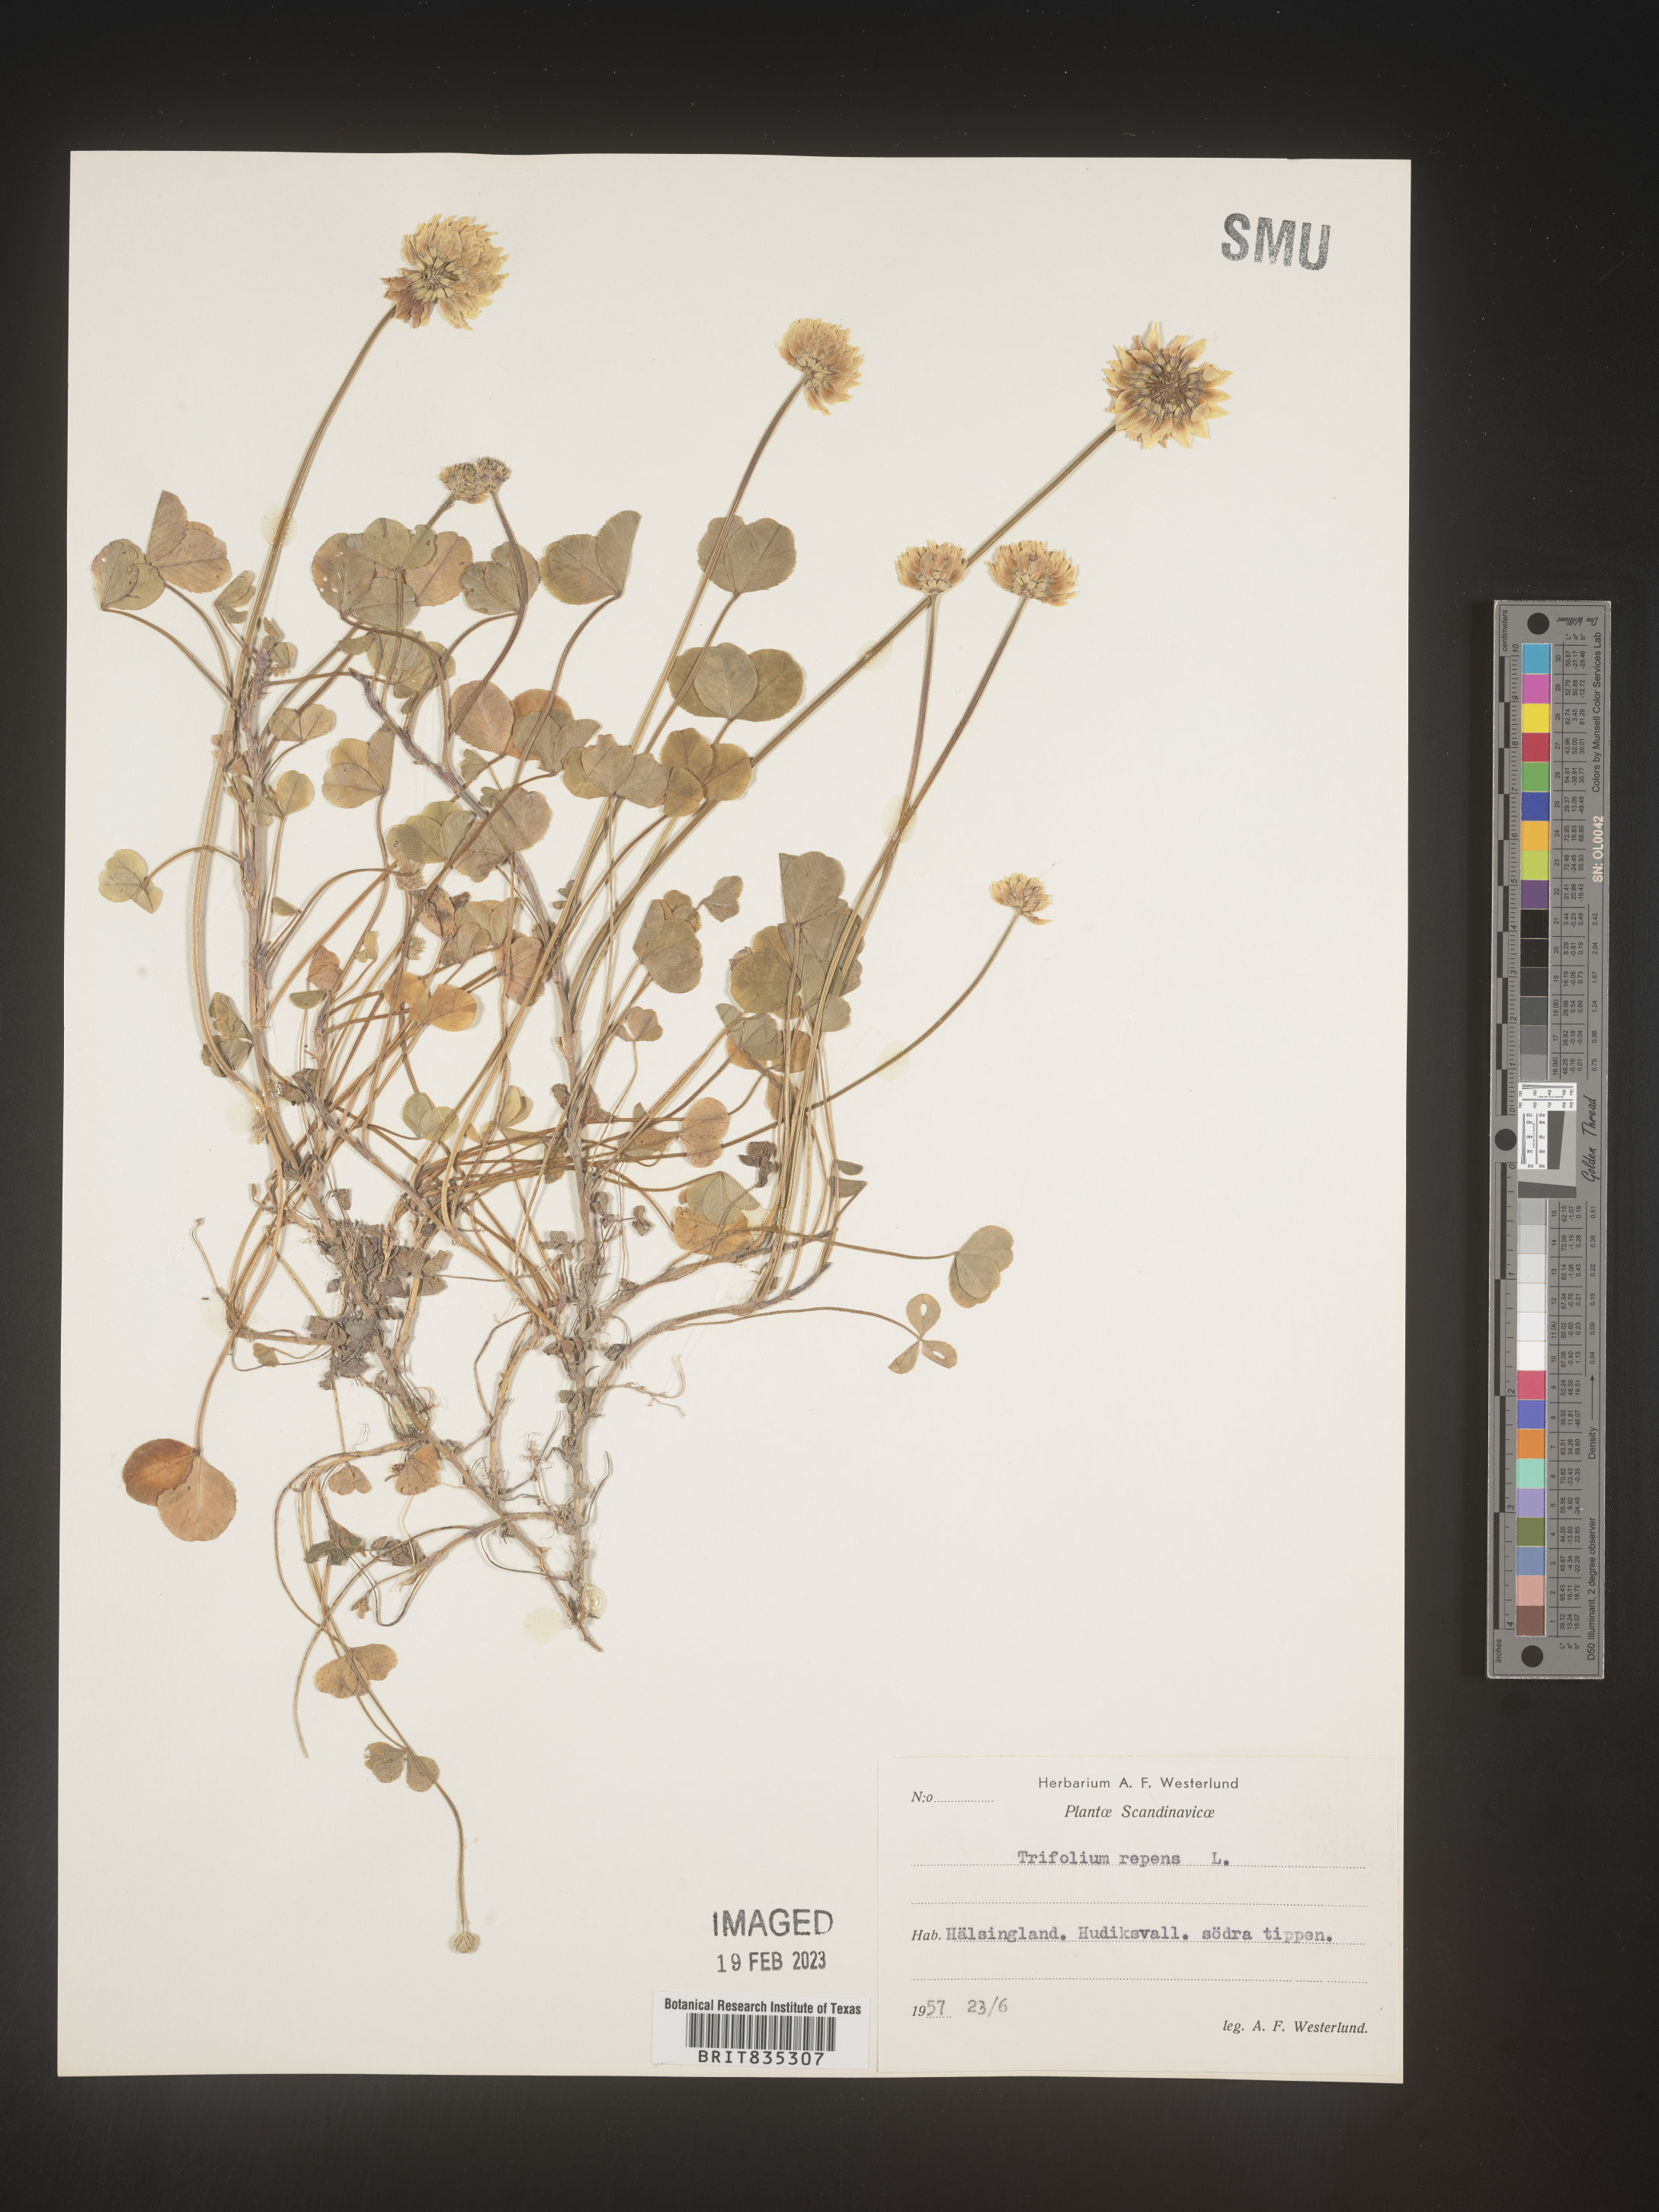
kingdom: Plantae
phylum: Tracheophyta
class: Magnoliopsida
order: Fabales
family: Fabaceae
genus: Trifolium
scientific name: Trifolium
